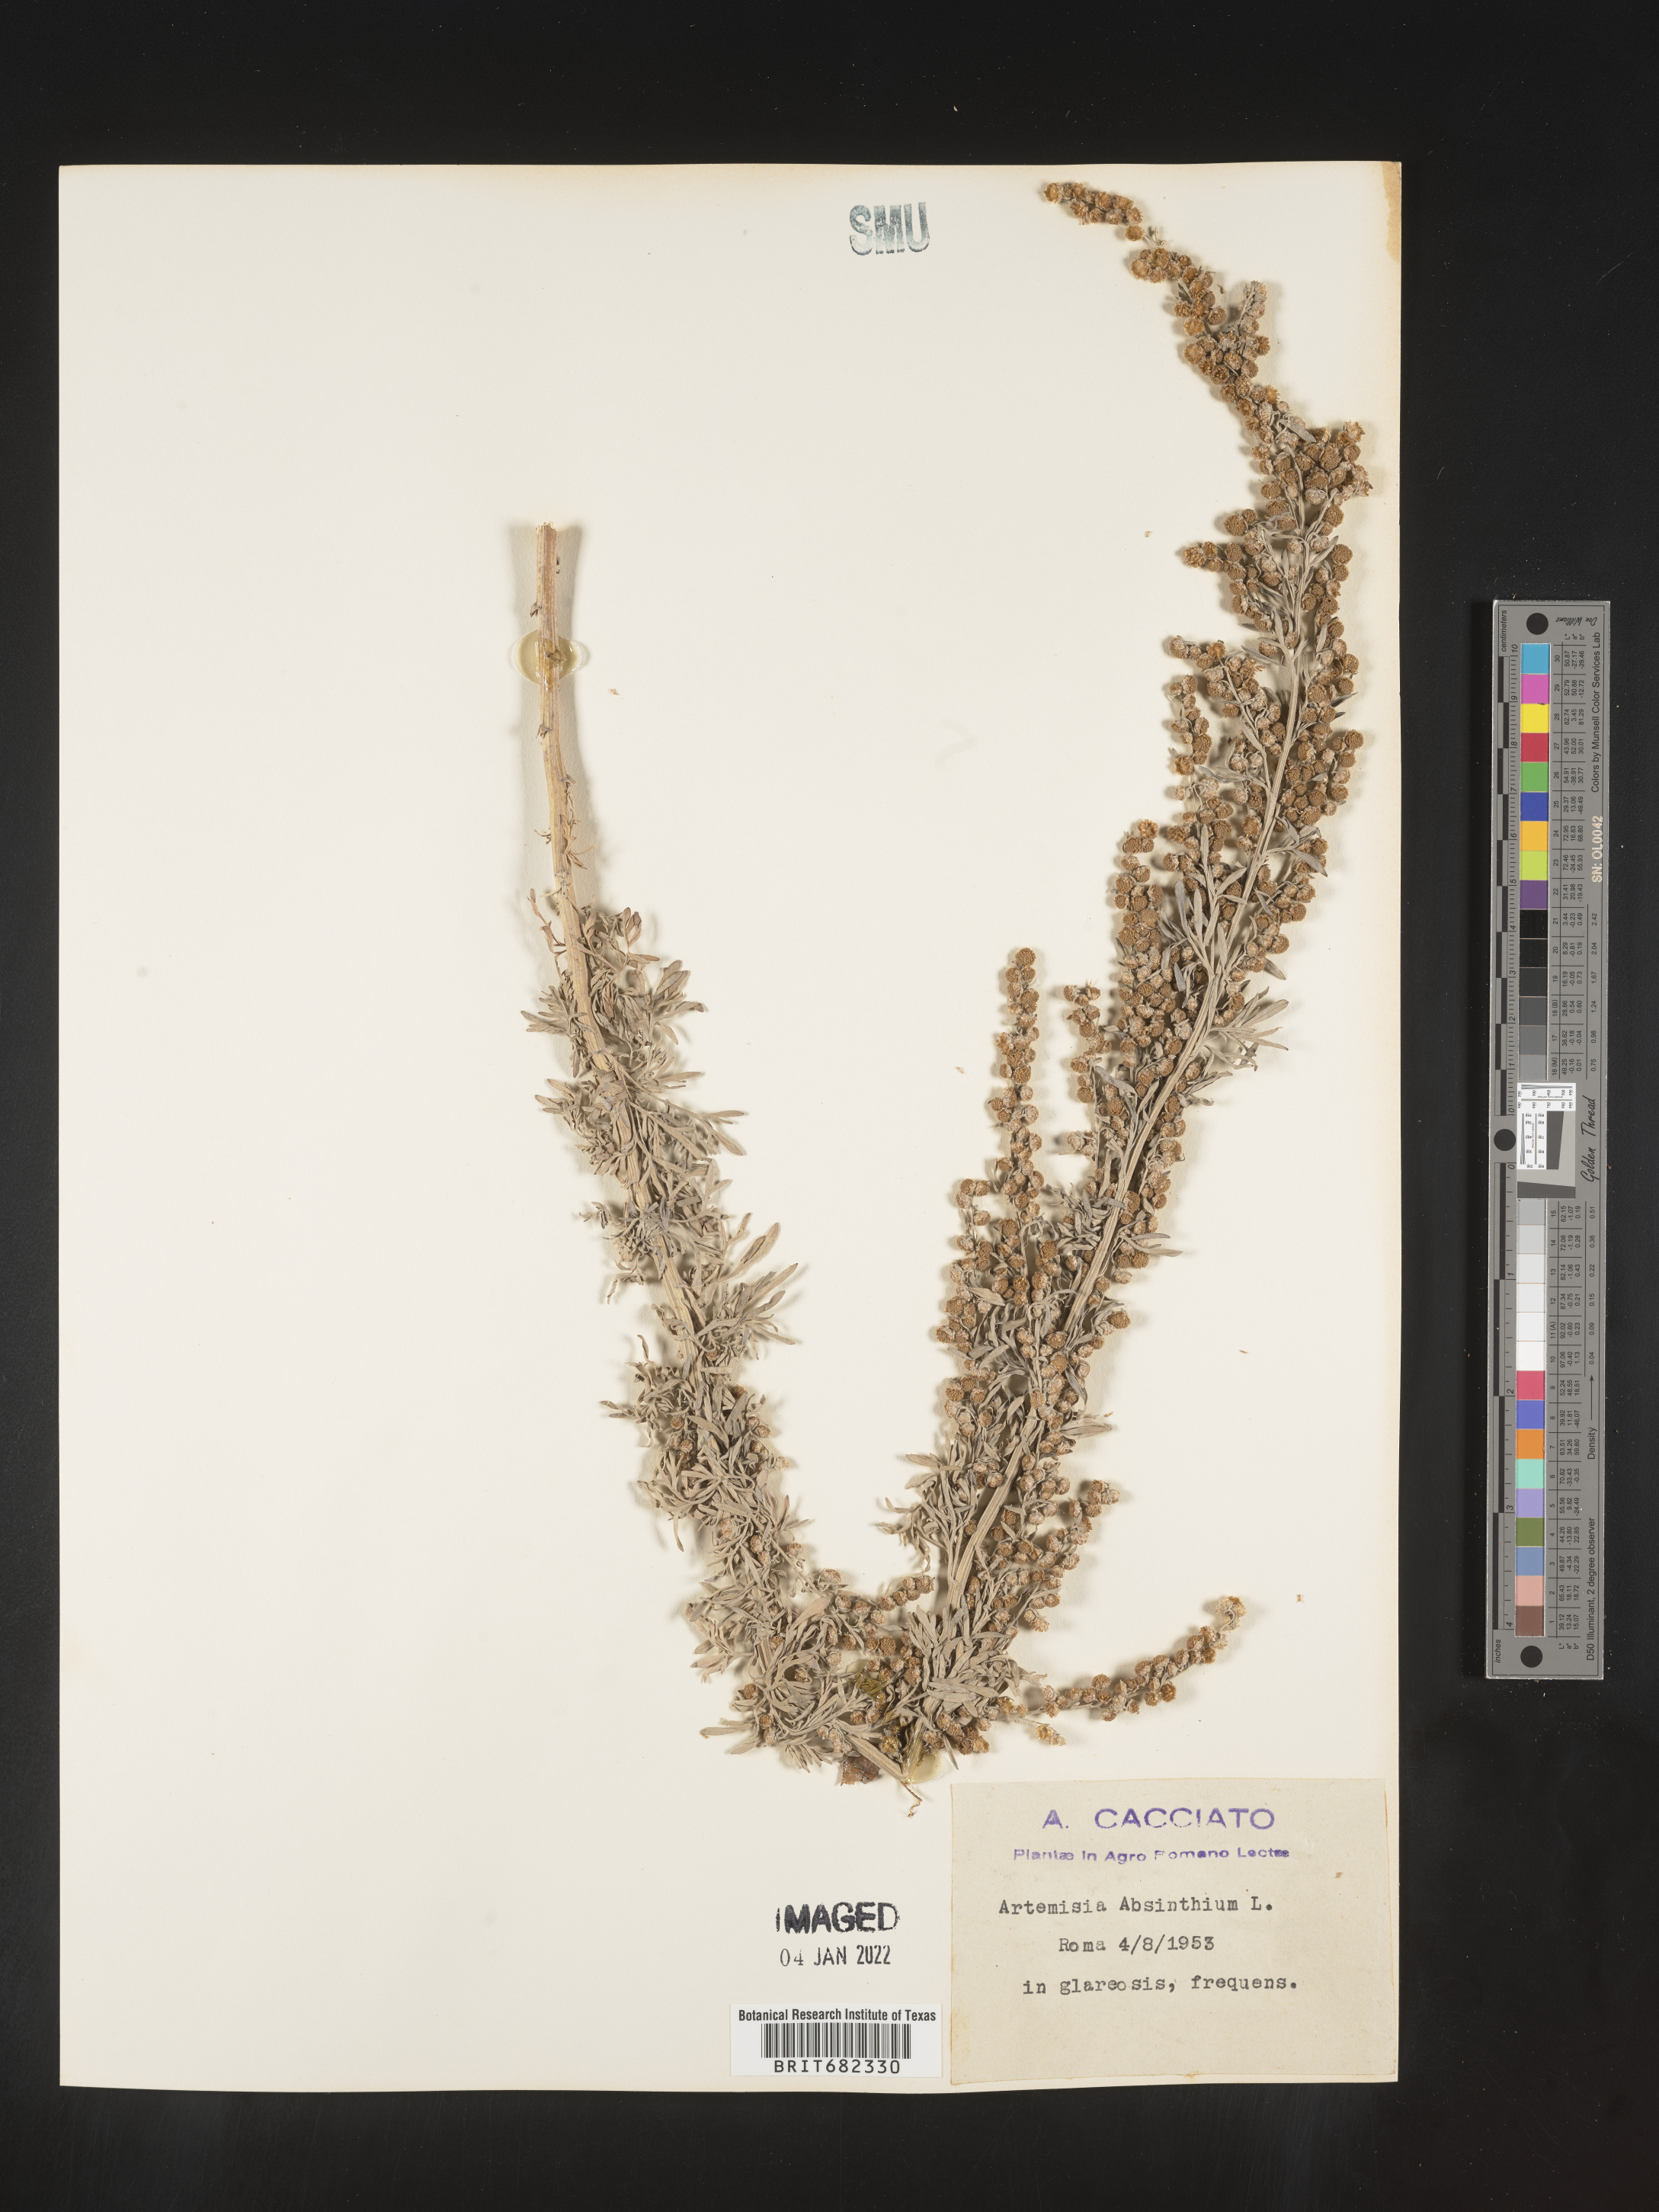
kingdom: Plantae
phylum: Tracheophyta
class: Magnoliopsida
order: Asterales
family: Asteraceae
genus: Artemisia
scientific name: Artemisia
